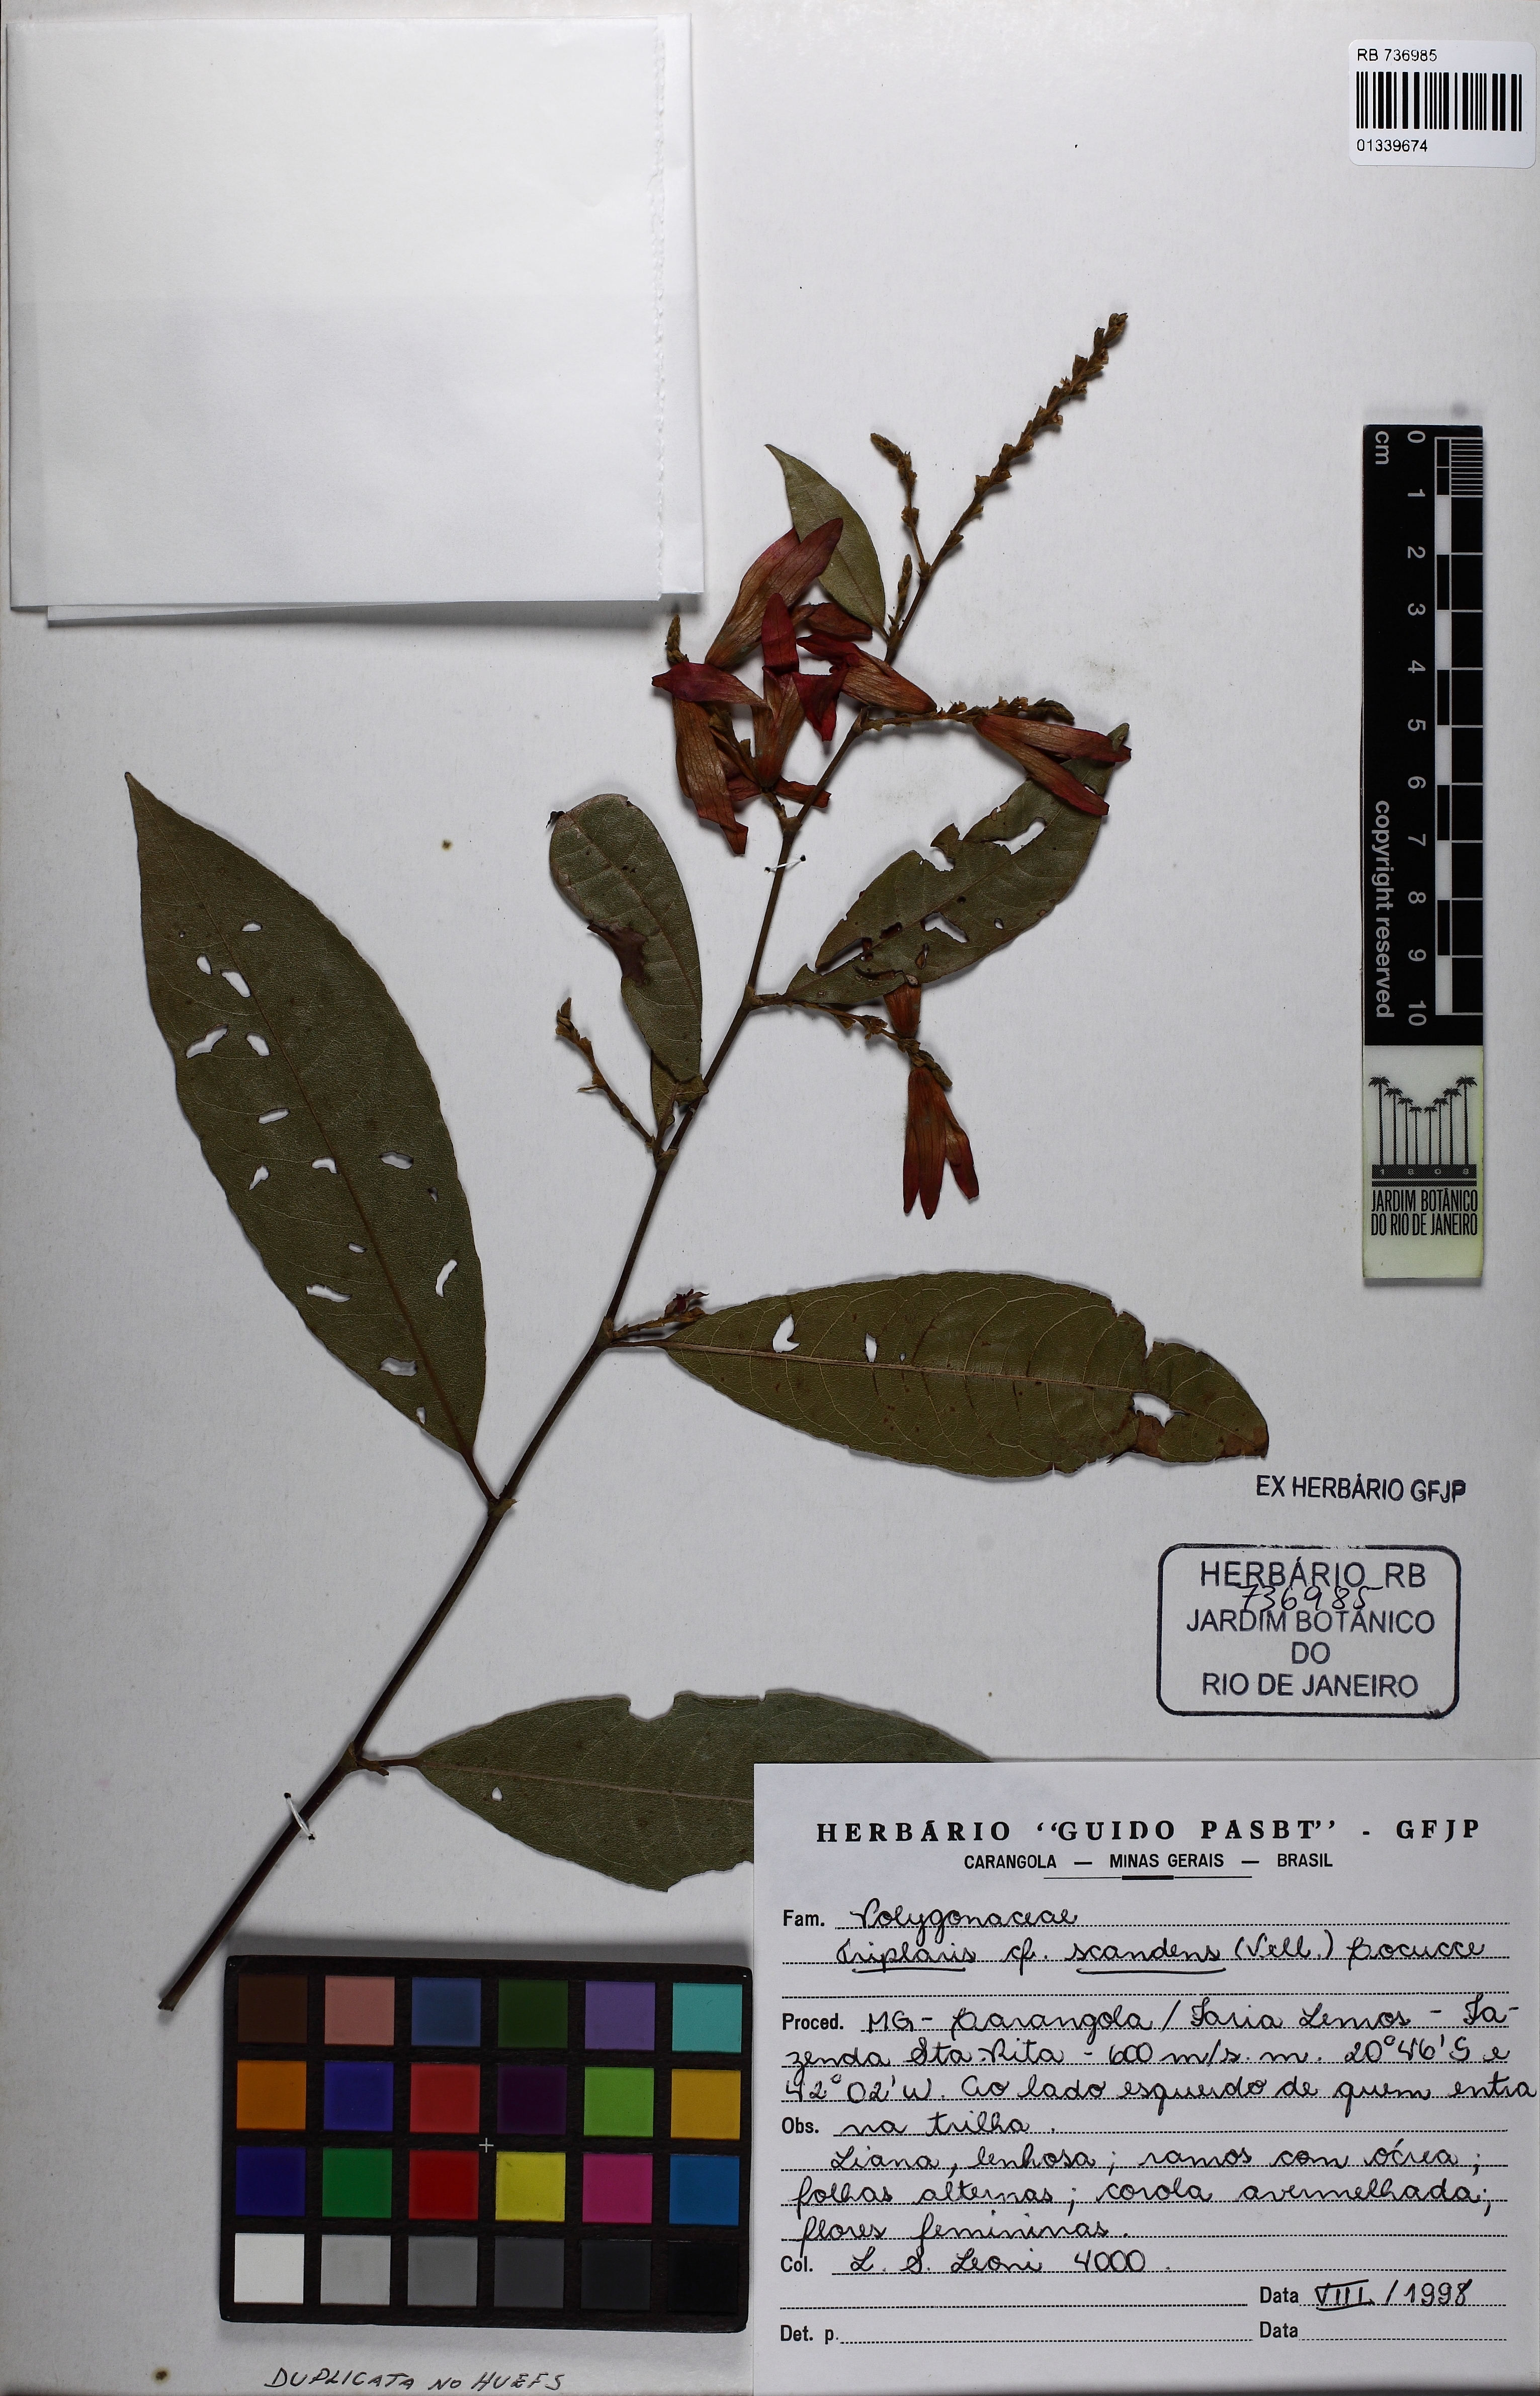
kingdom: Plantae
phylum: Tracheophyta
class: Magnoliopsida
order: Caryophyllales
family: Polygonaceae
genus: Magoniella
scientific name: Magoniella obidensis
